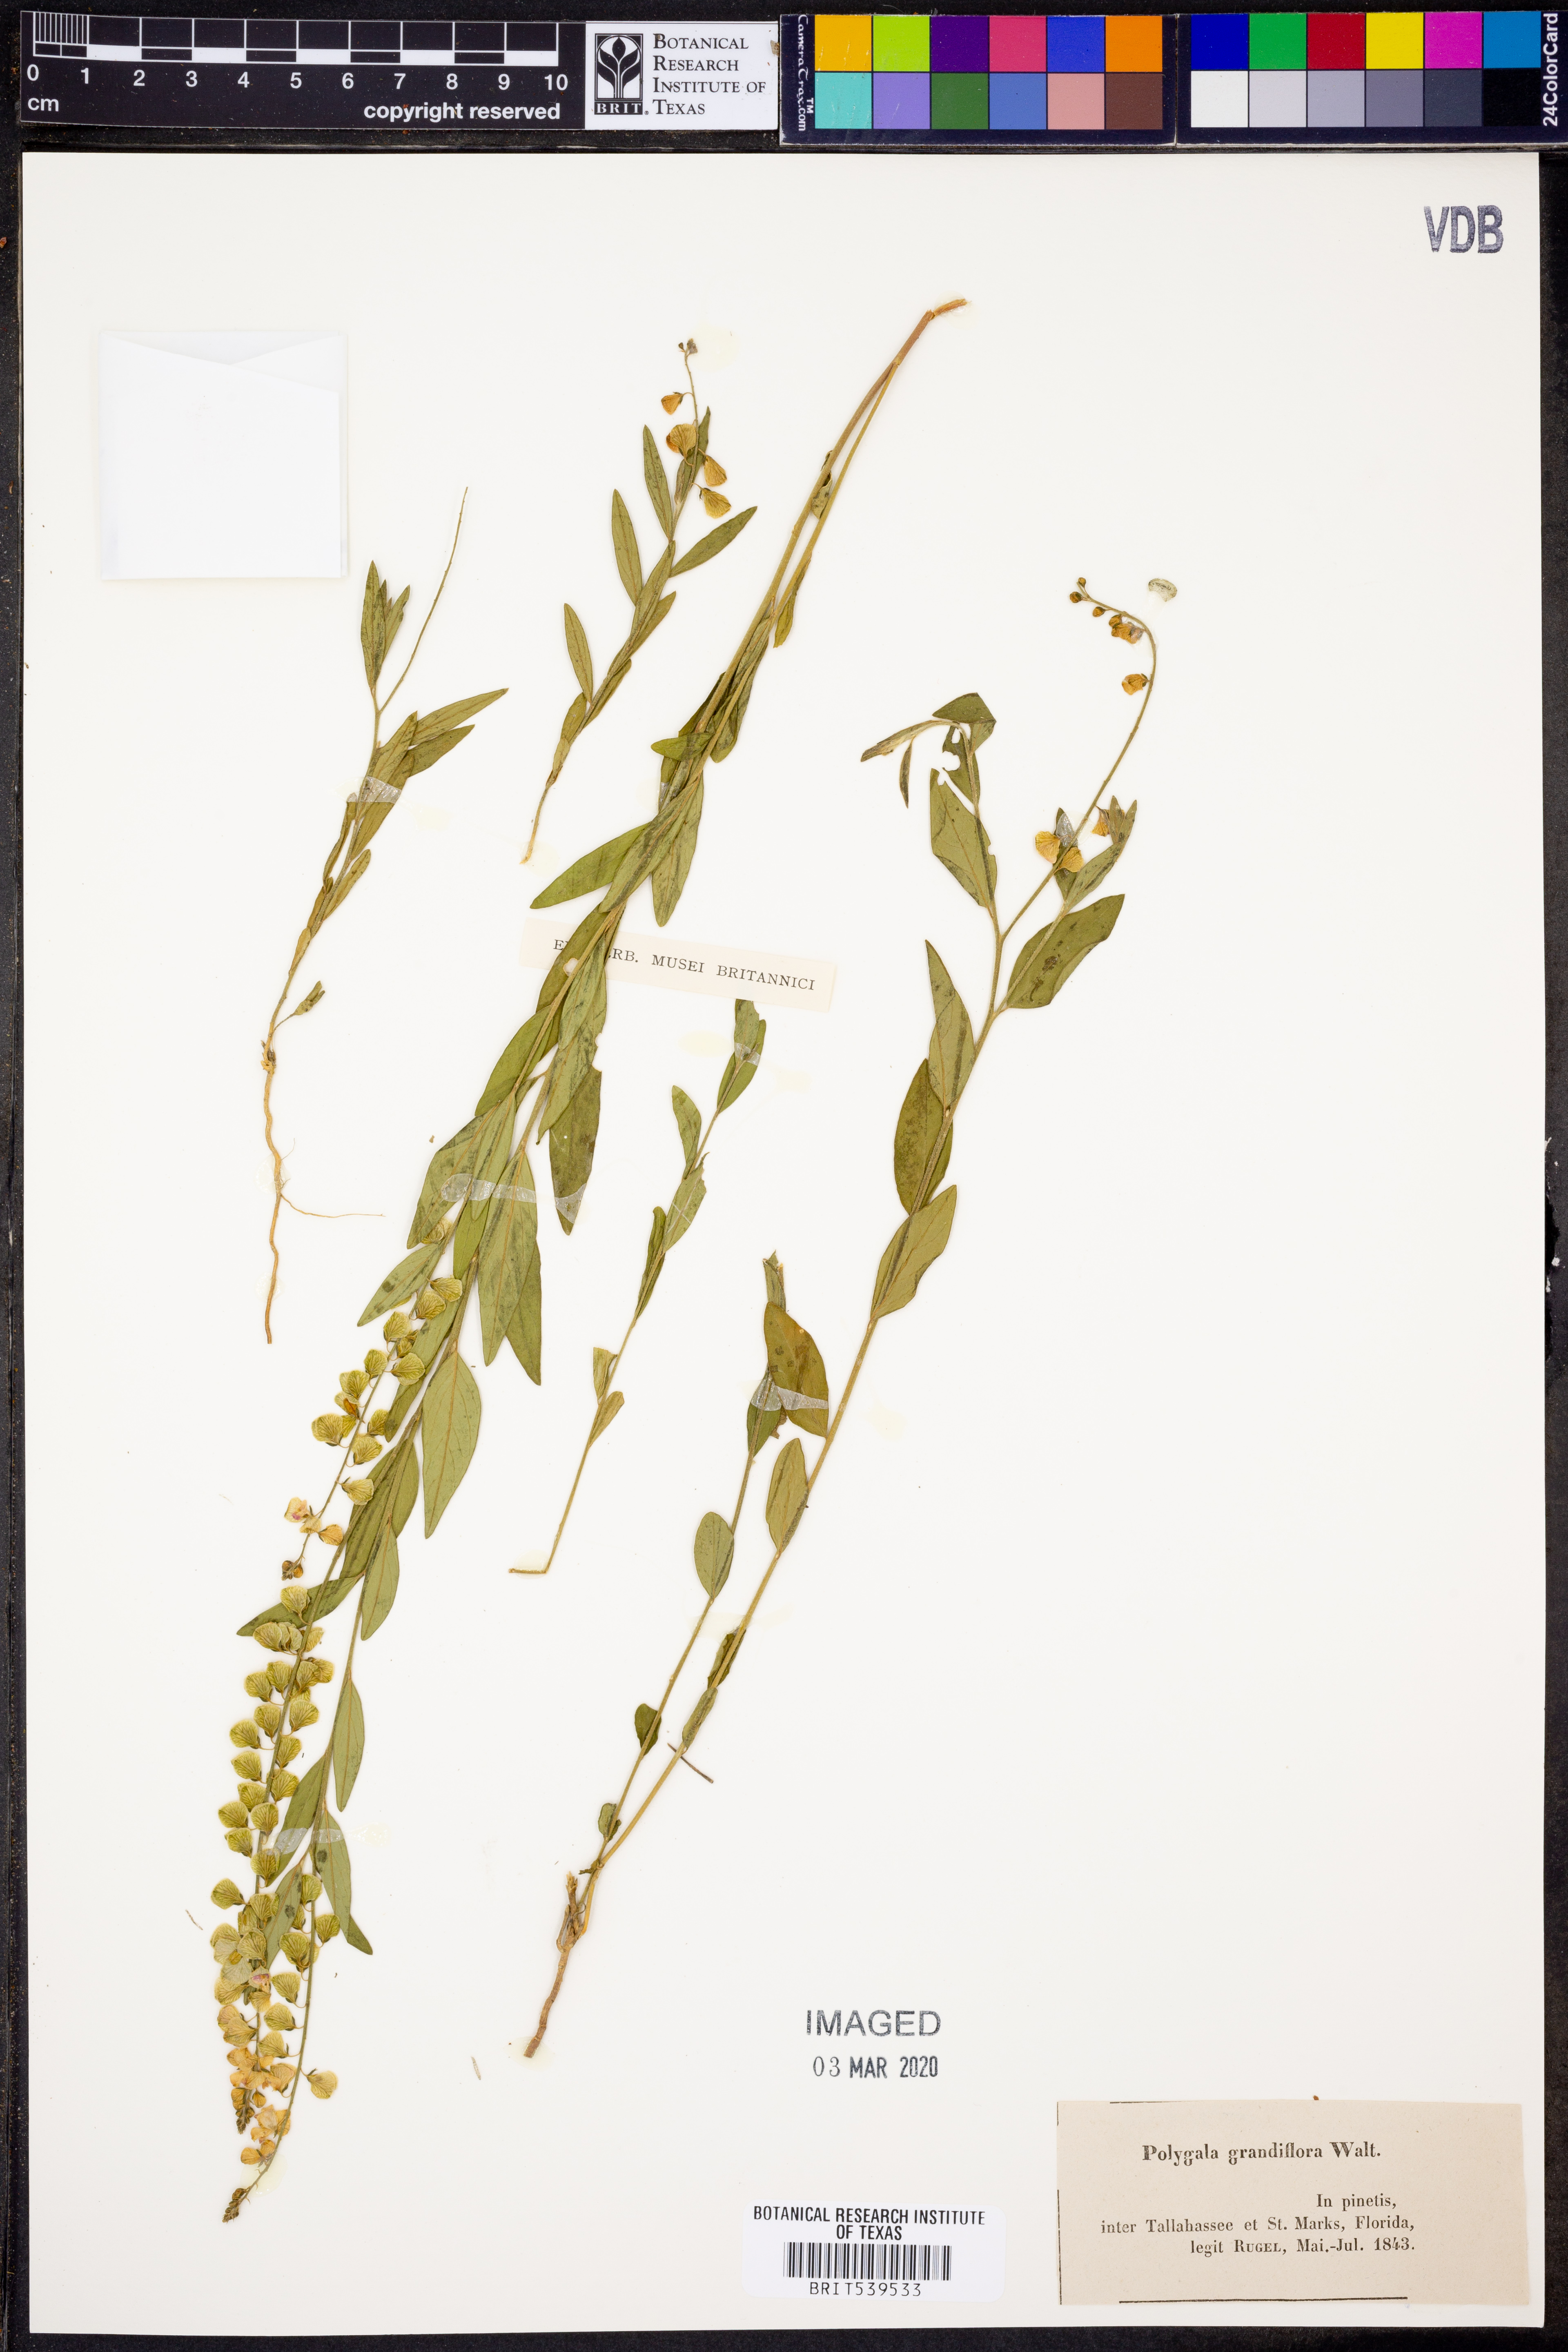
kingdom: Plantae
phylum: Tracheophyta
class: Magnoliopsida
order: Fabales
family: Polygalaceae
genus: Asemeia
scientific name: Asemeia grandiflora
